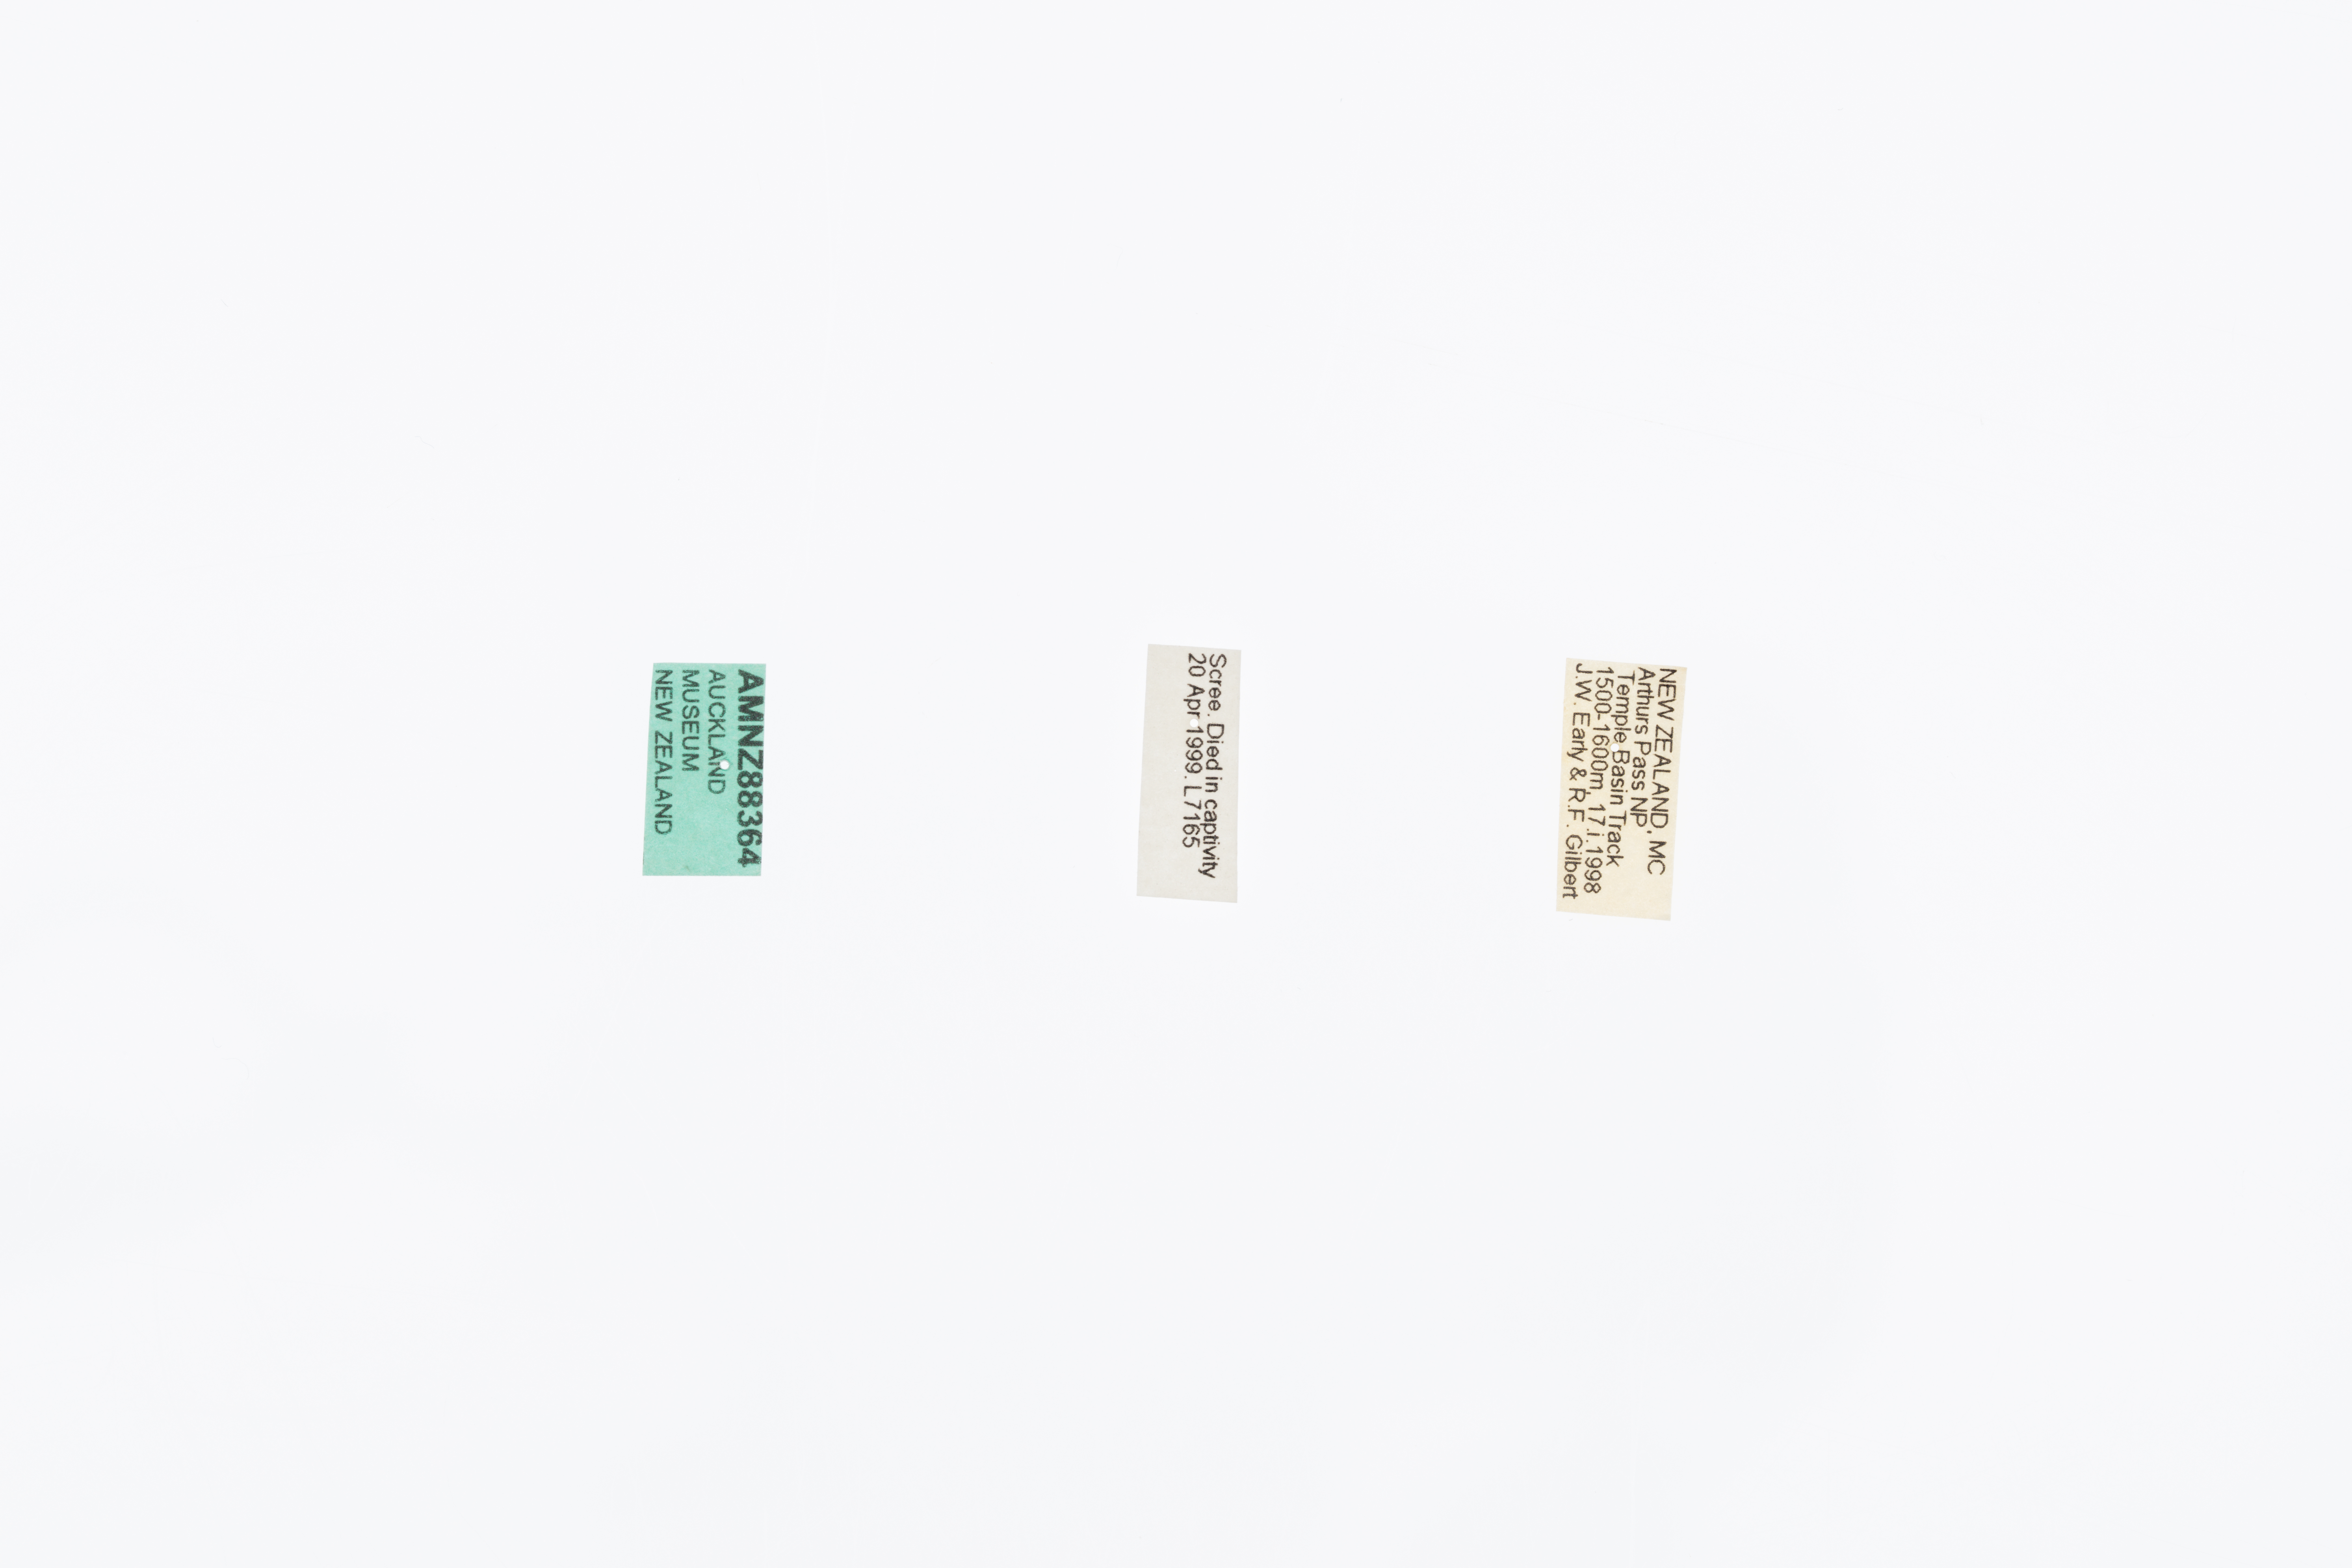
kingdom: Animalia
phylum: Arthropoda
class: Insecta
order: Orthoptera
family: Anostostomatidae
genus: Deinacrida
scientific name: Deinacrida connectens
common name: Scree weta
